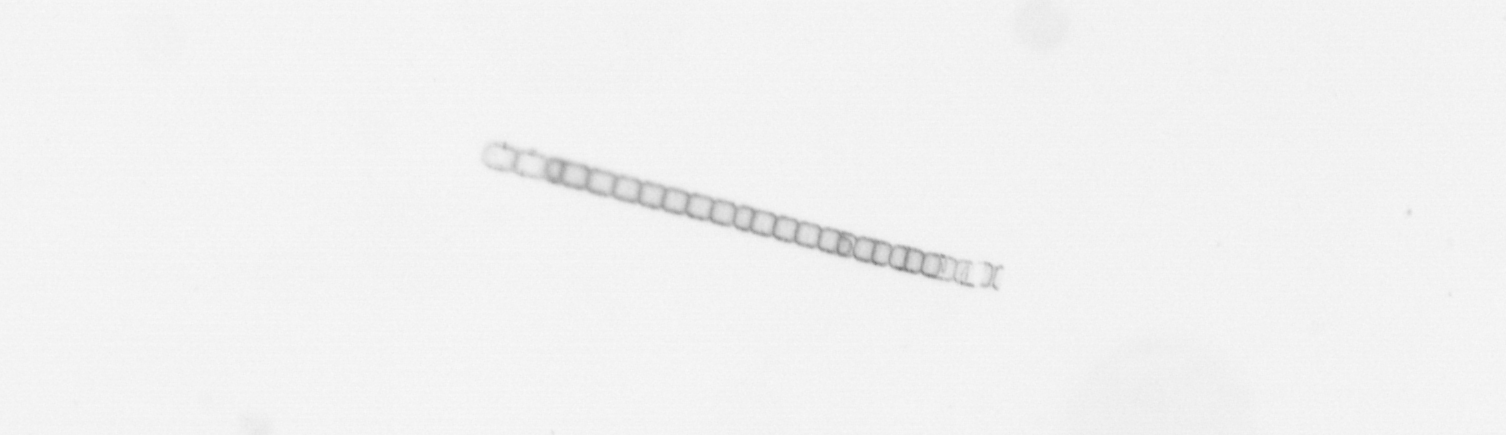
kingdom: Chromista
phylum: Ochrophyta
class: Bacillariophyceae
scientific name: Bacillariophyceae
